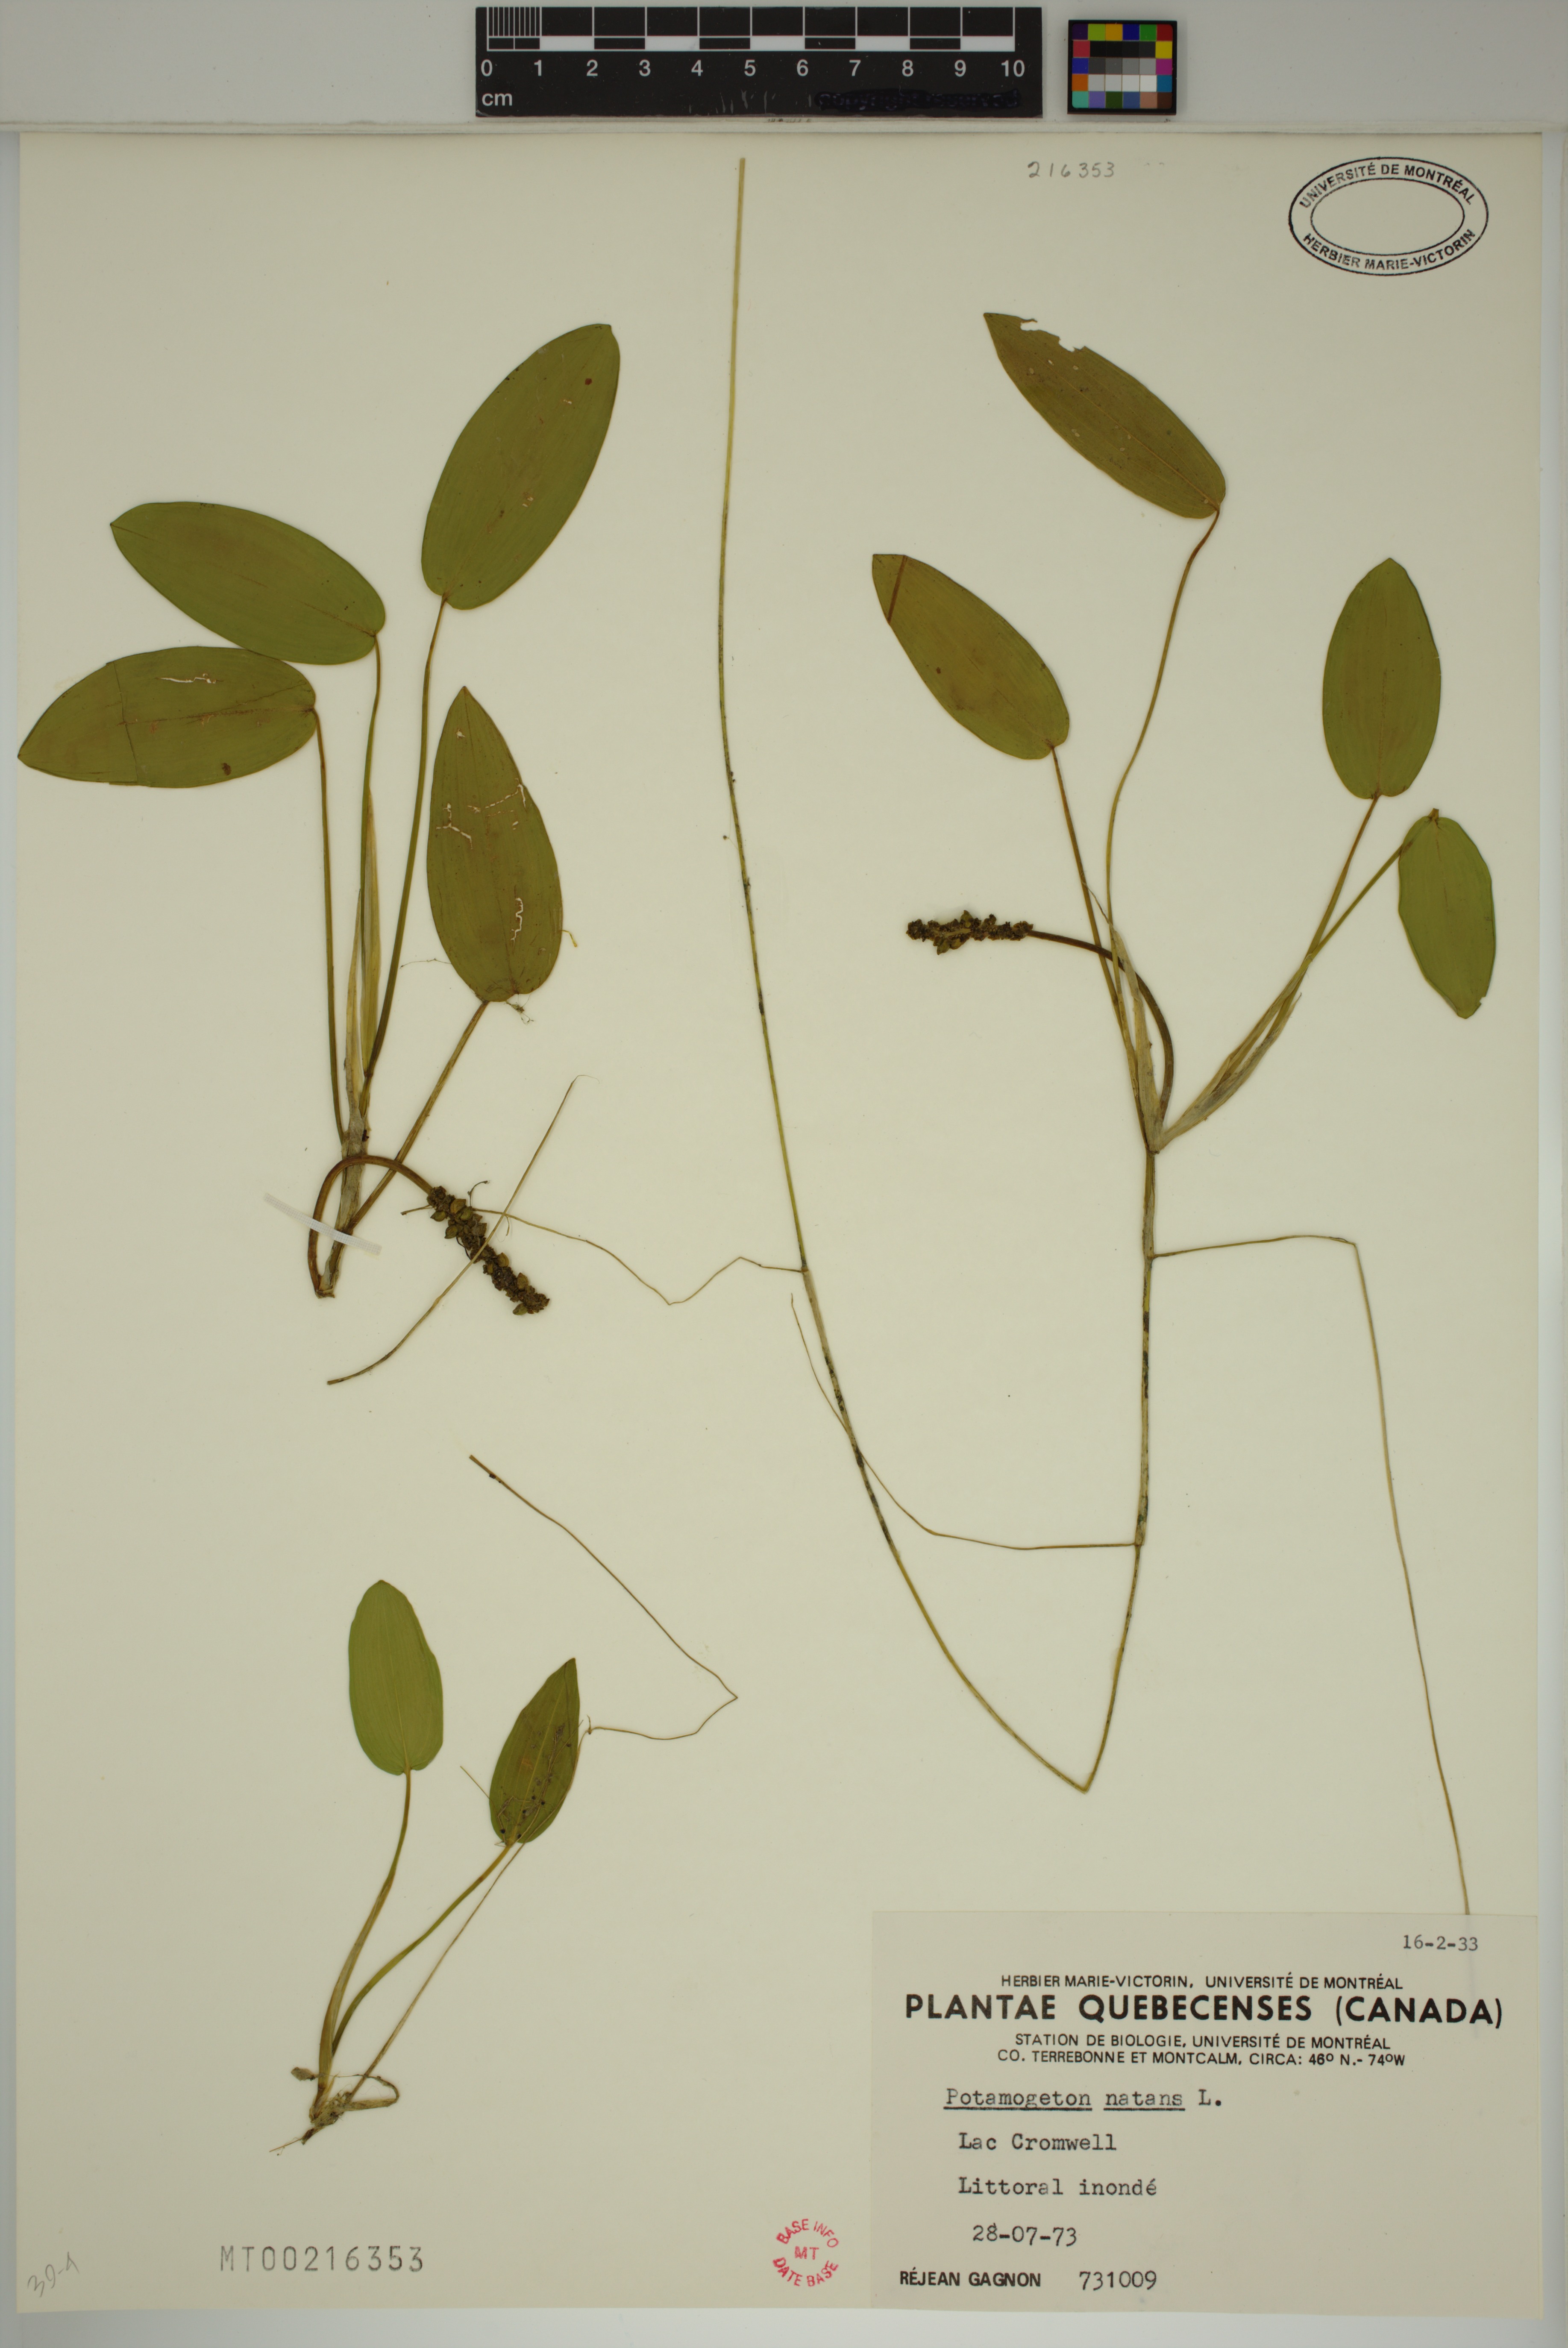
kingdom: Plantae
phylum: Tracheophyta
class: Liliopsida
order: Alismatales
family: Potamogetonaceae
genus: Potamogeton
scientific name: Potamogeton natans
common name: Broad-leaved pondweed
